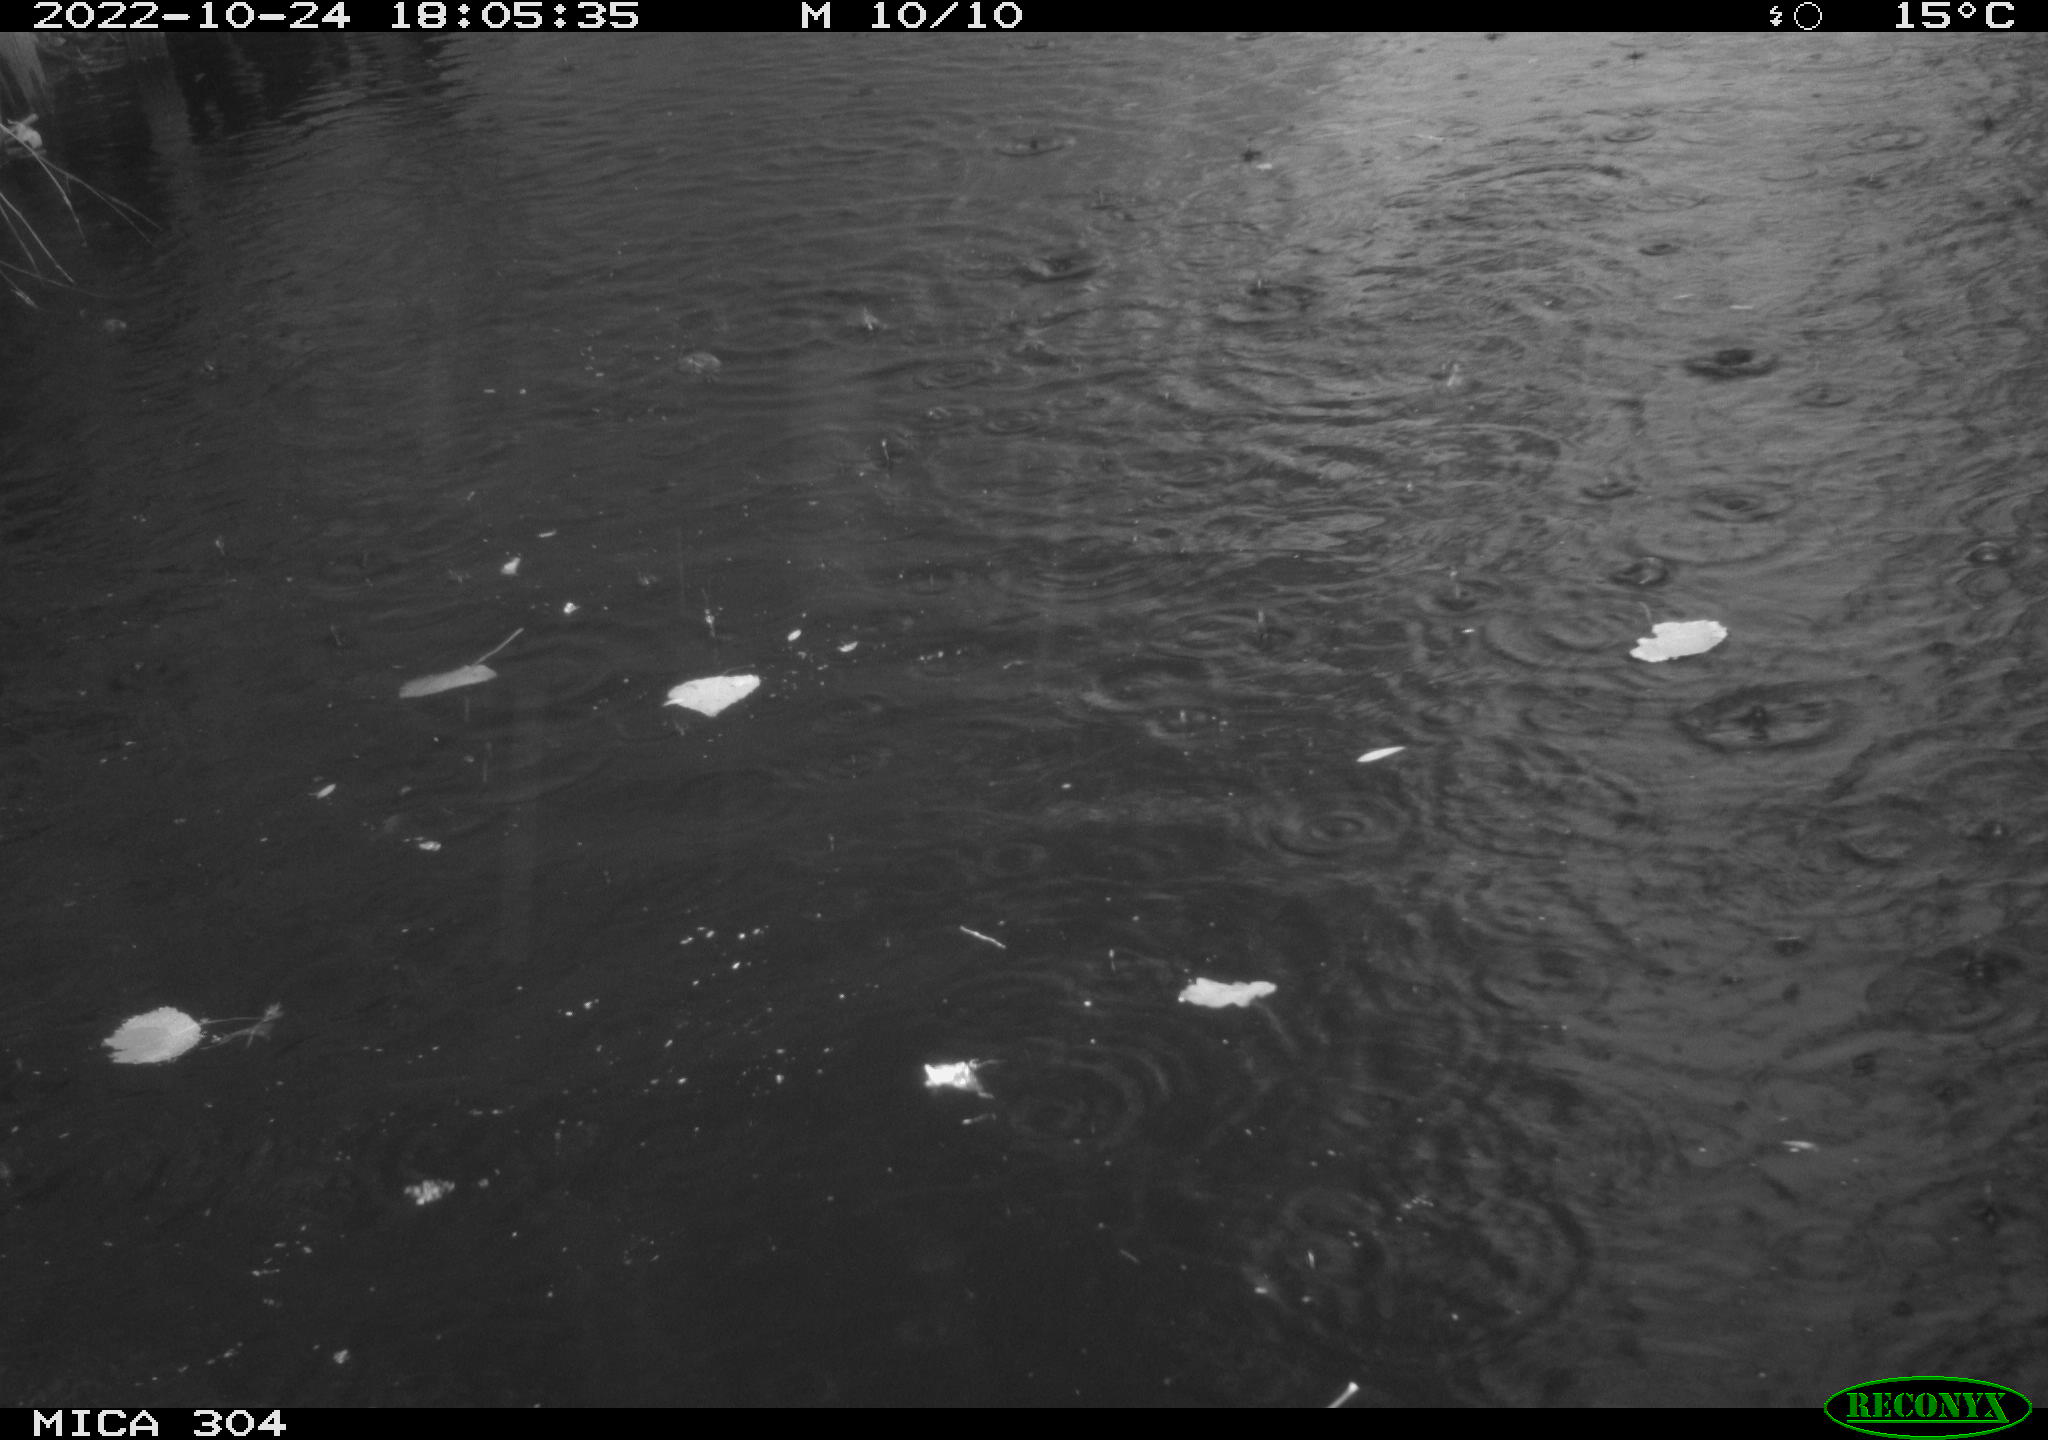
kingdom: Animalia
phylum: Chordata
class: Aves
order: Gruiformes
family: Rallidae
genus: Gallinula
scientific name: Gallinula chloropus
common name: Common moorhen
